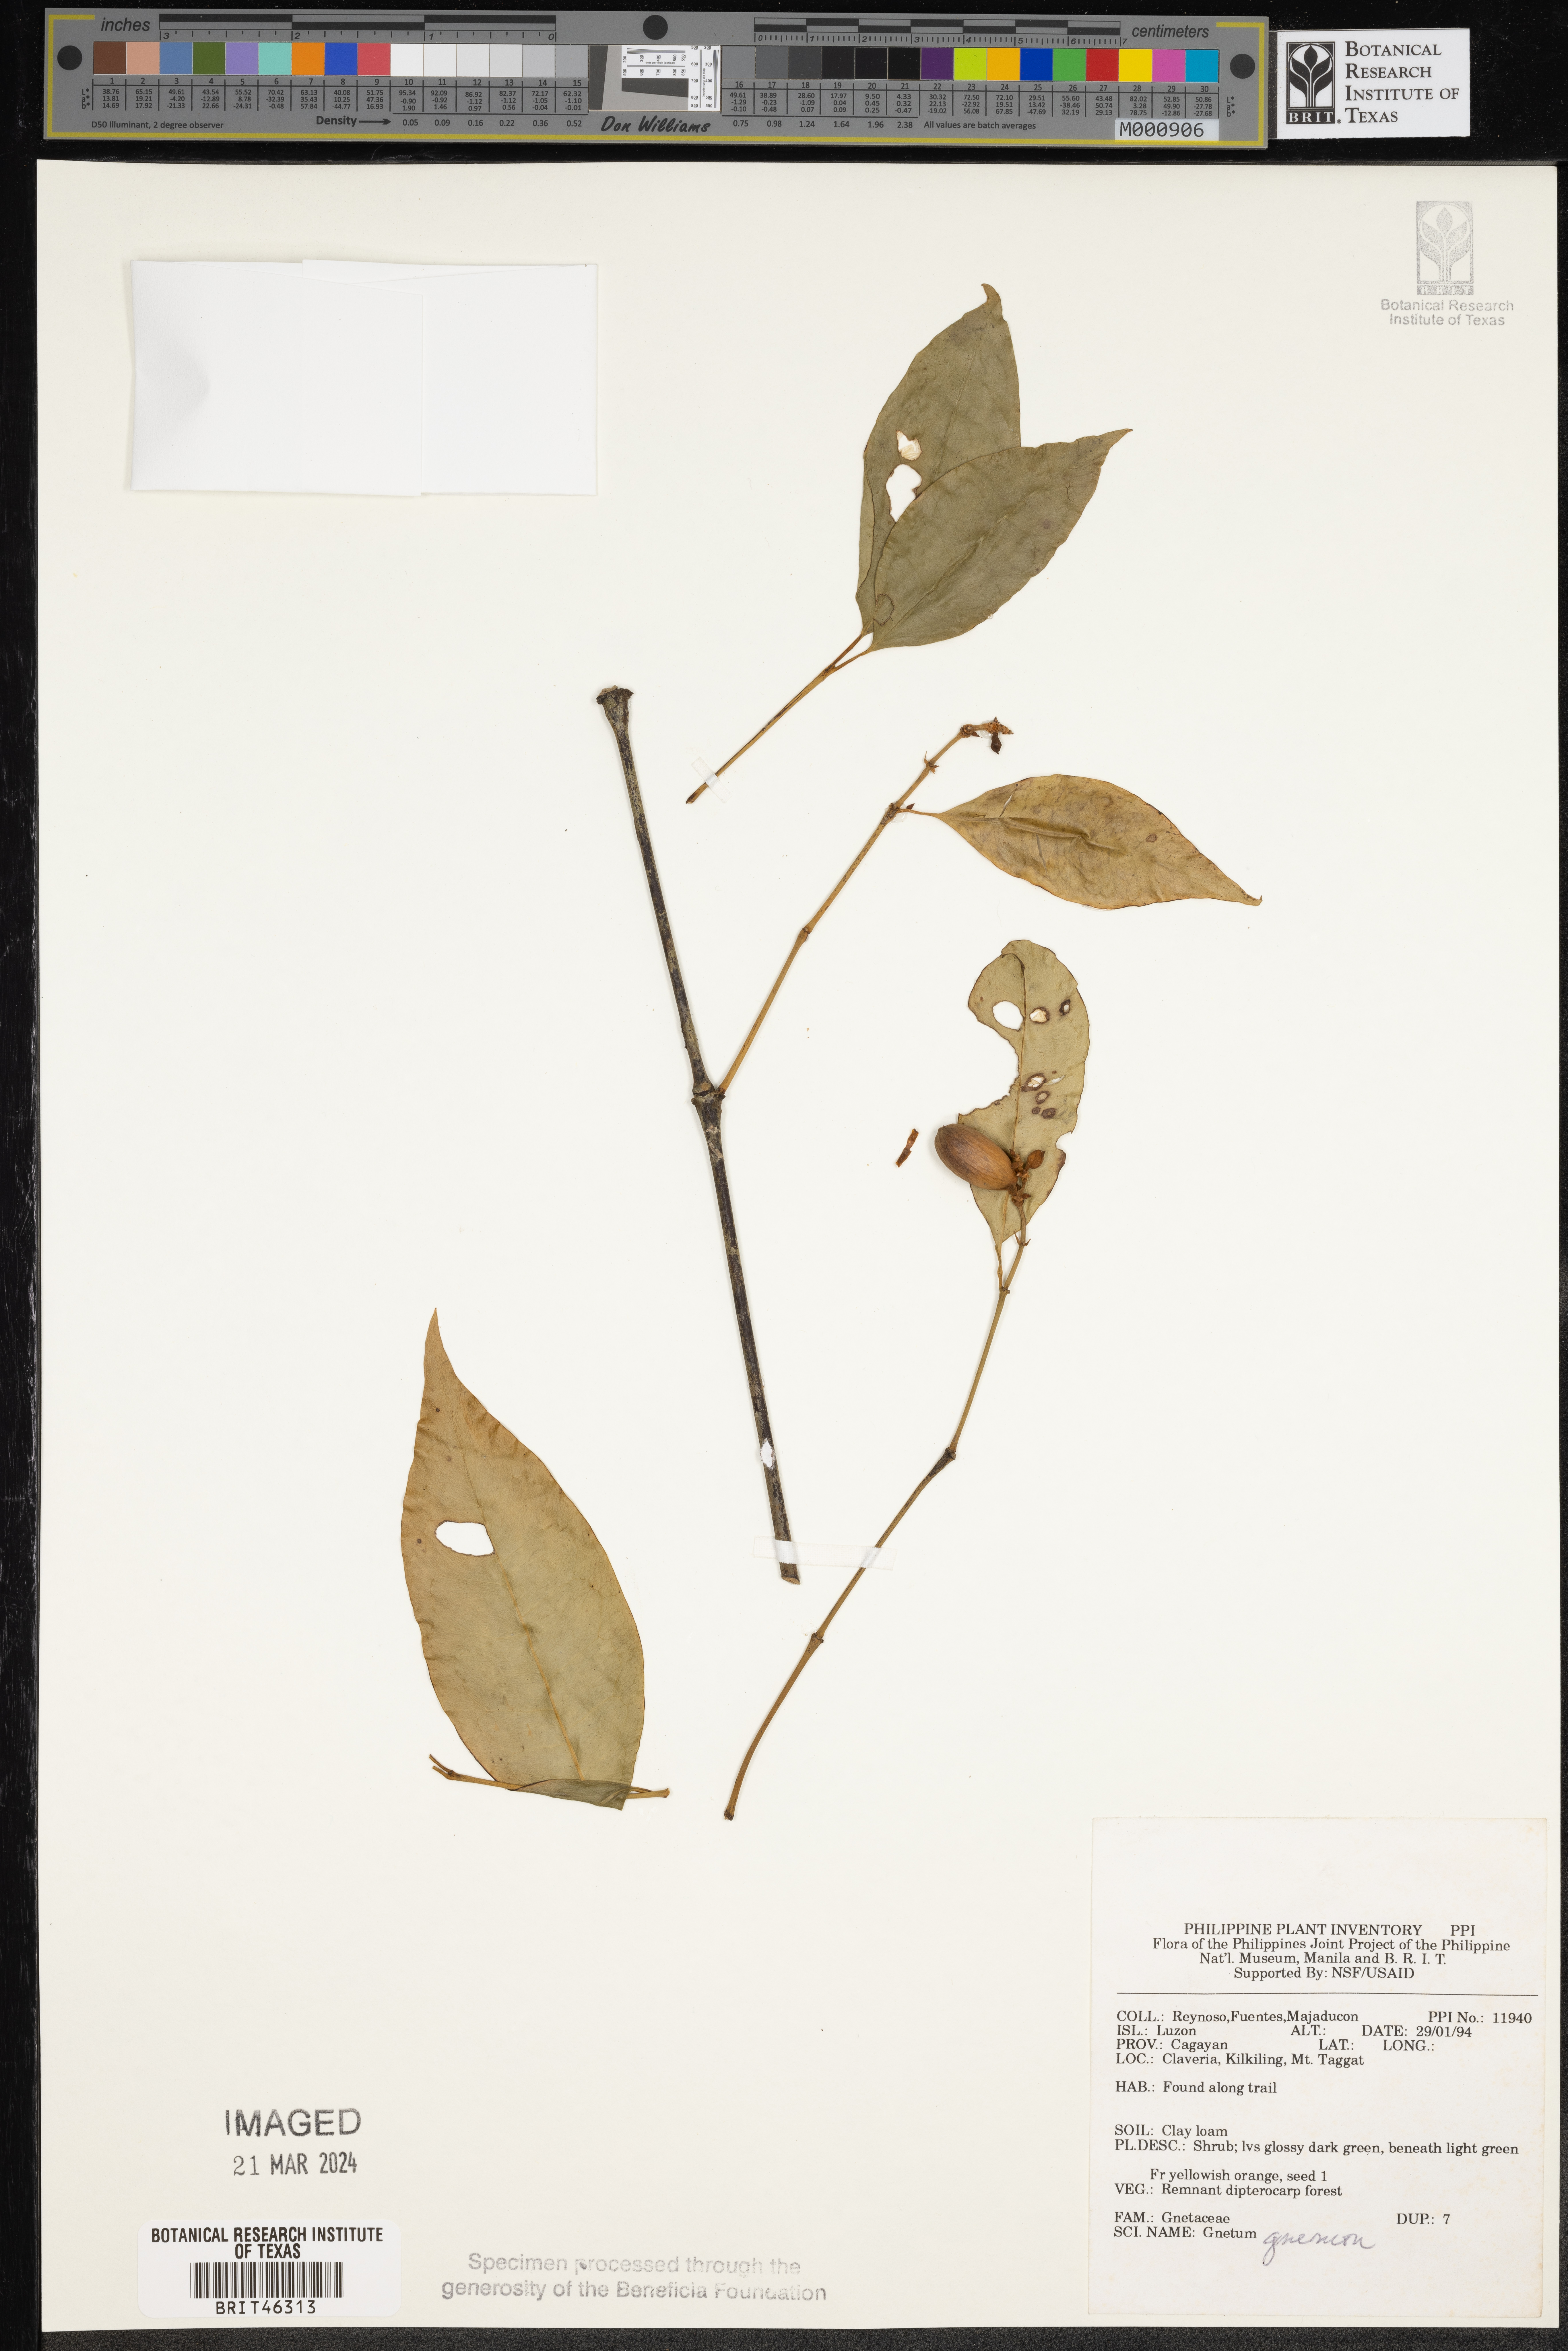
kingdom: Plantae
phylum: Tracheophyta
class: Gnetopsida
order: Gnetales
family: Gnetaceae
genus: Gnetum
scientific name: Gnetum gnemon
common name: Spanish joint-fir
